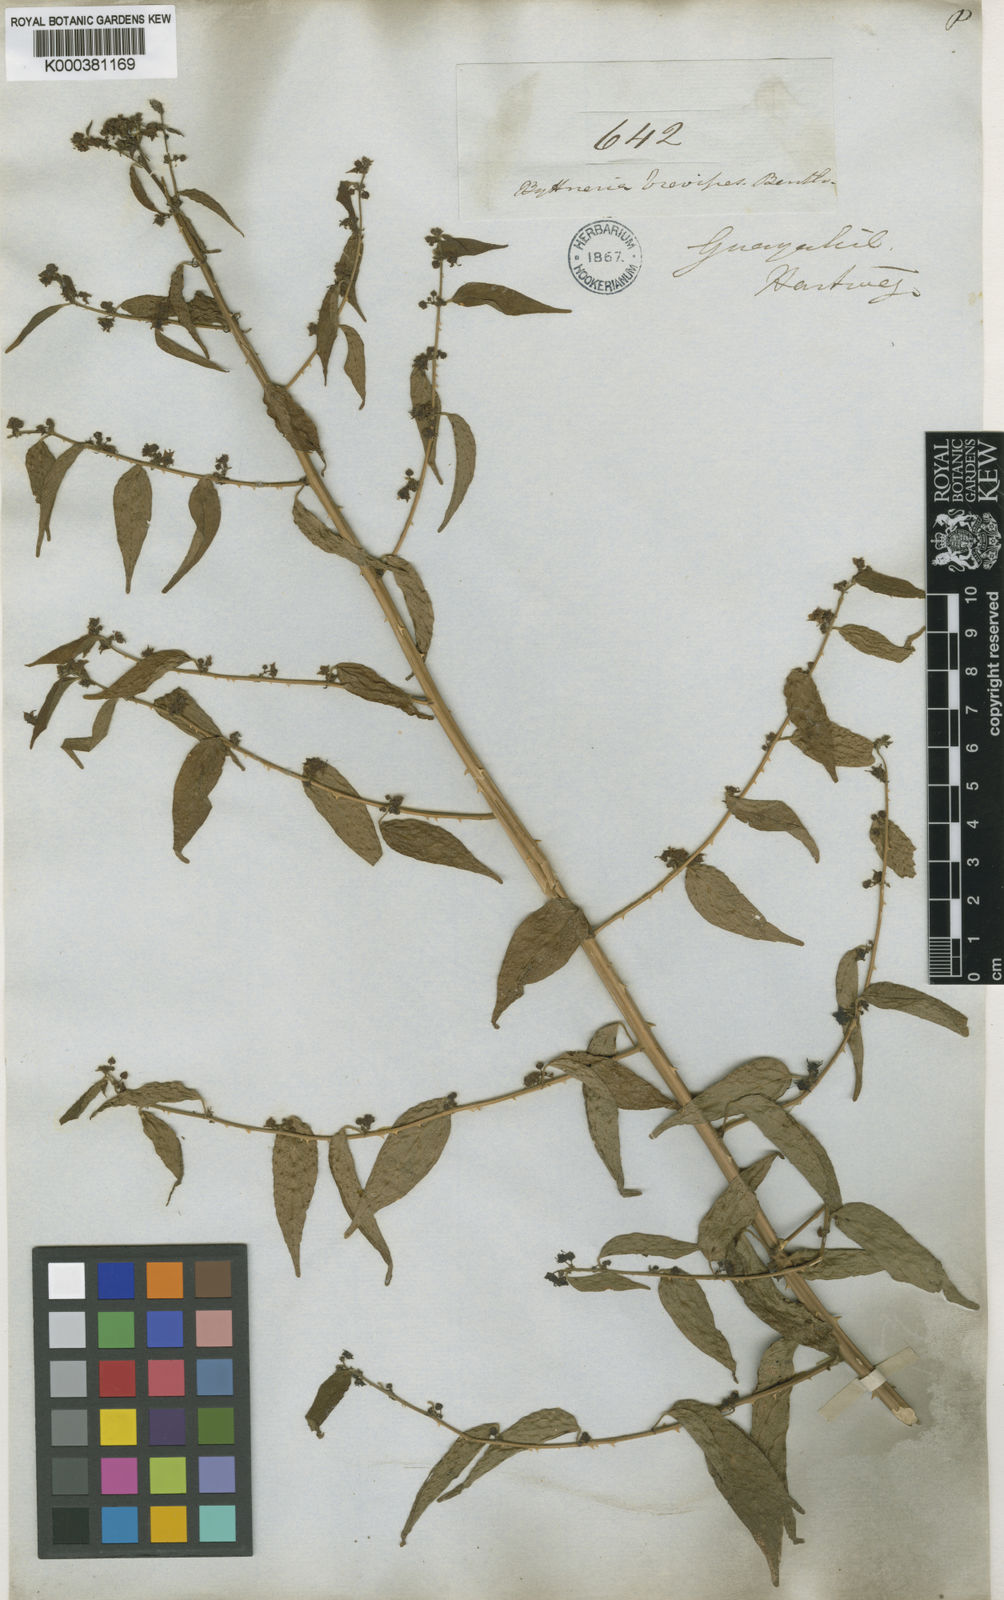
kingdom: Plantae
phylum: Tracheophyta
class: Magnoliopsida
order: Malvales
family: Malvaceae
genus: Byttneria
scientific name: Byttneria aculeata
